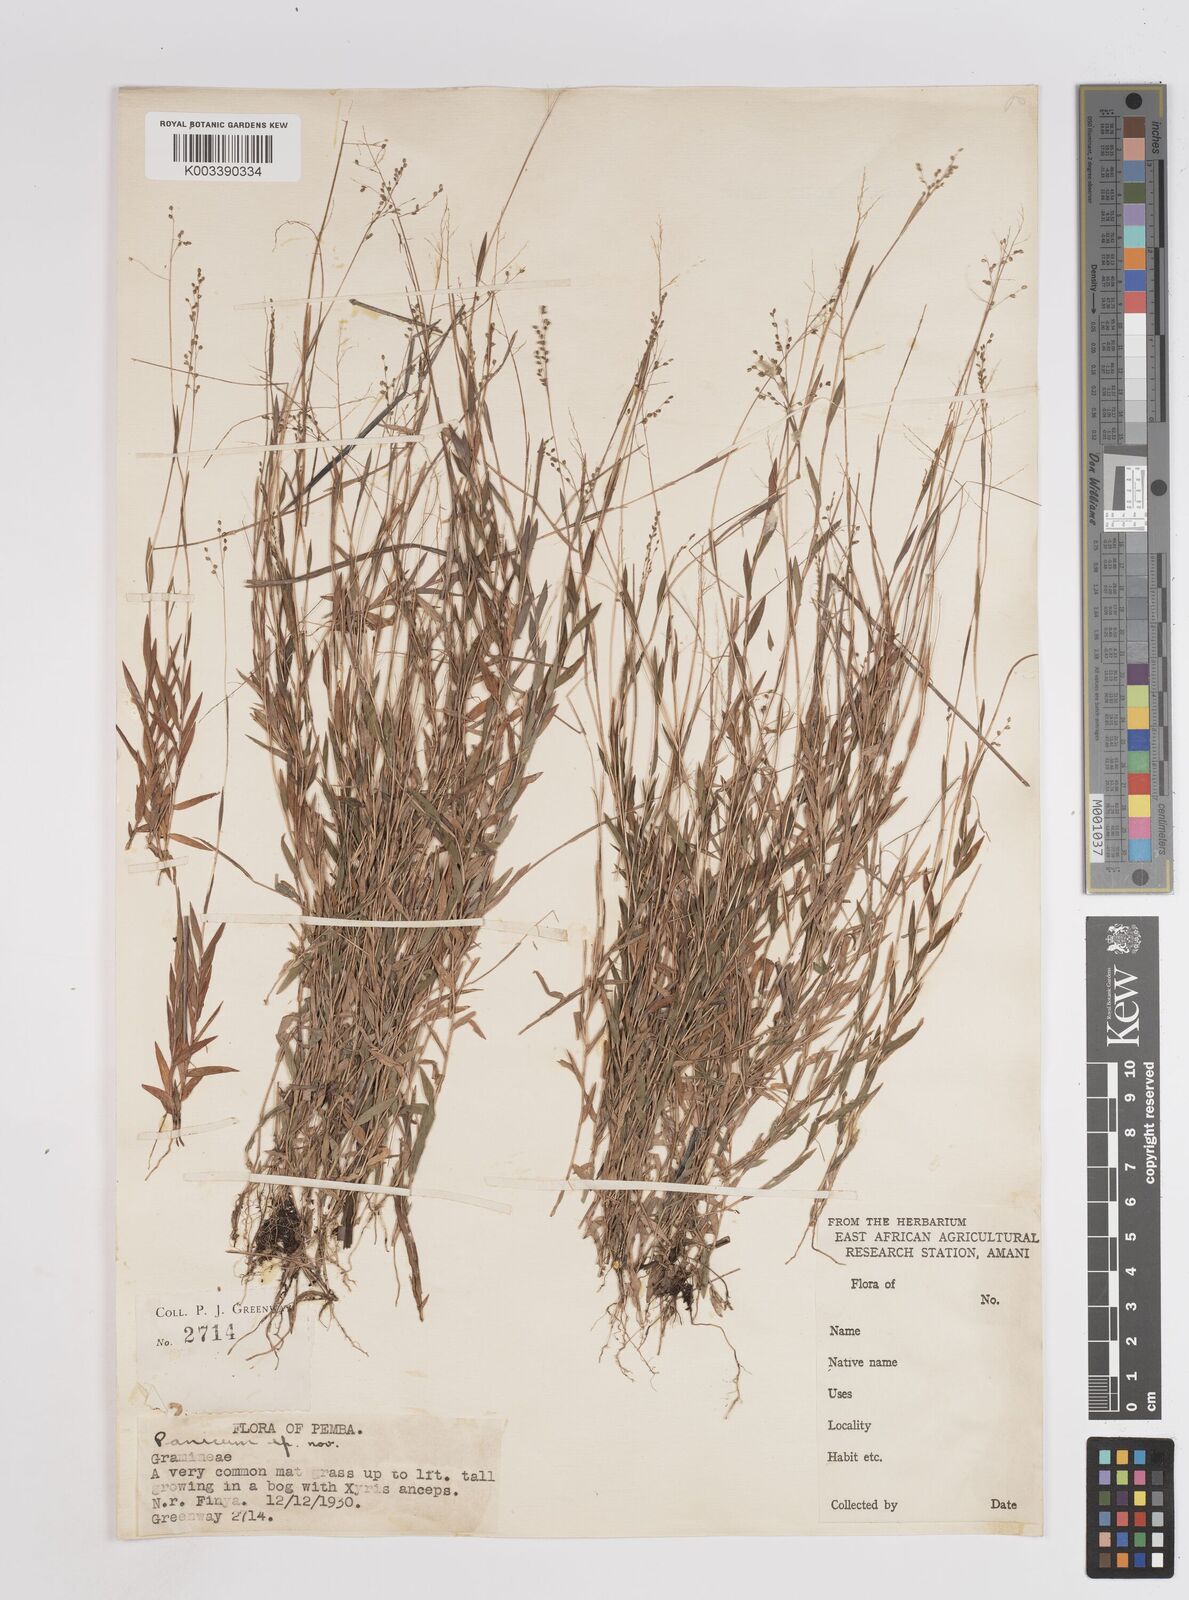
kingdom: Plantae
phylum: Tracheophyta
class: Liliopsida
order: Poales
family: Poaceae
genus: Trichanthecium
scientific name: Trichanthecium gracilicaule
